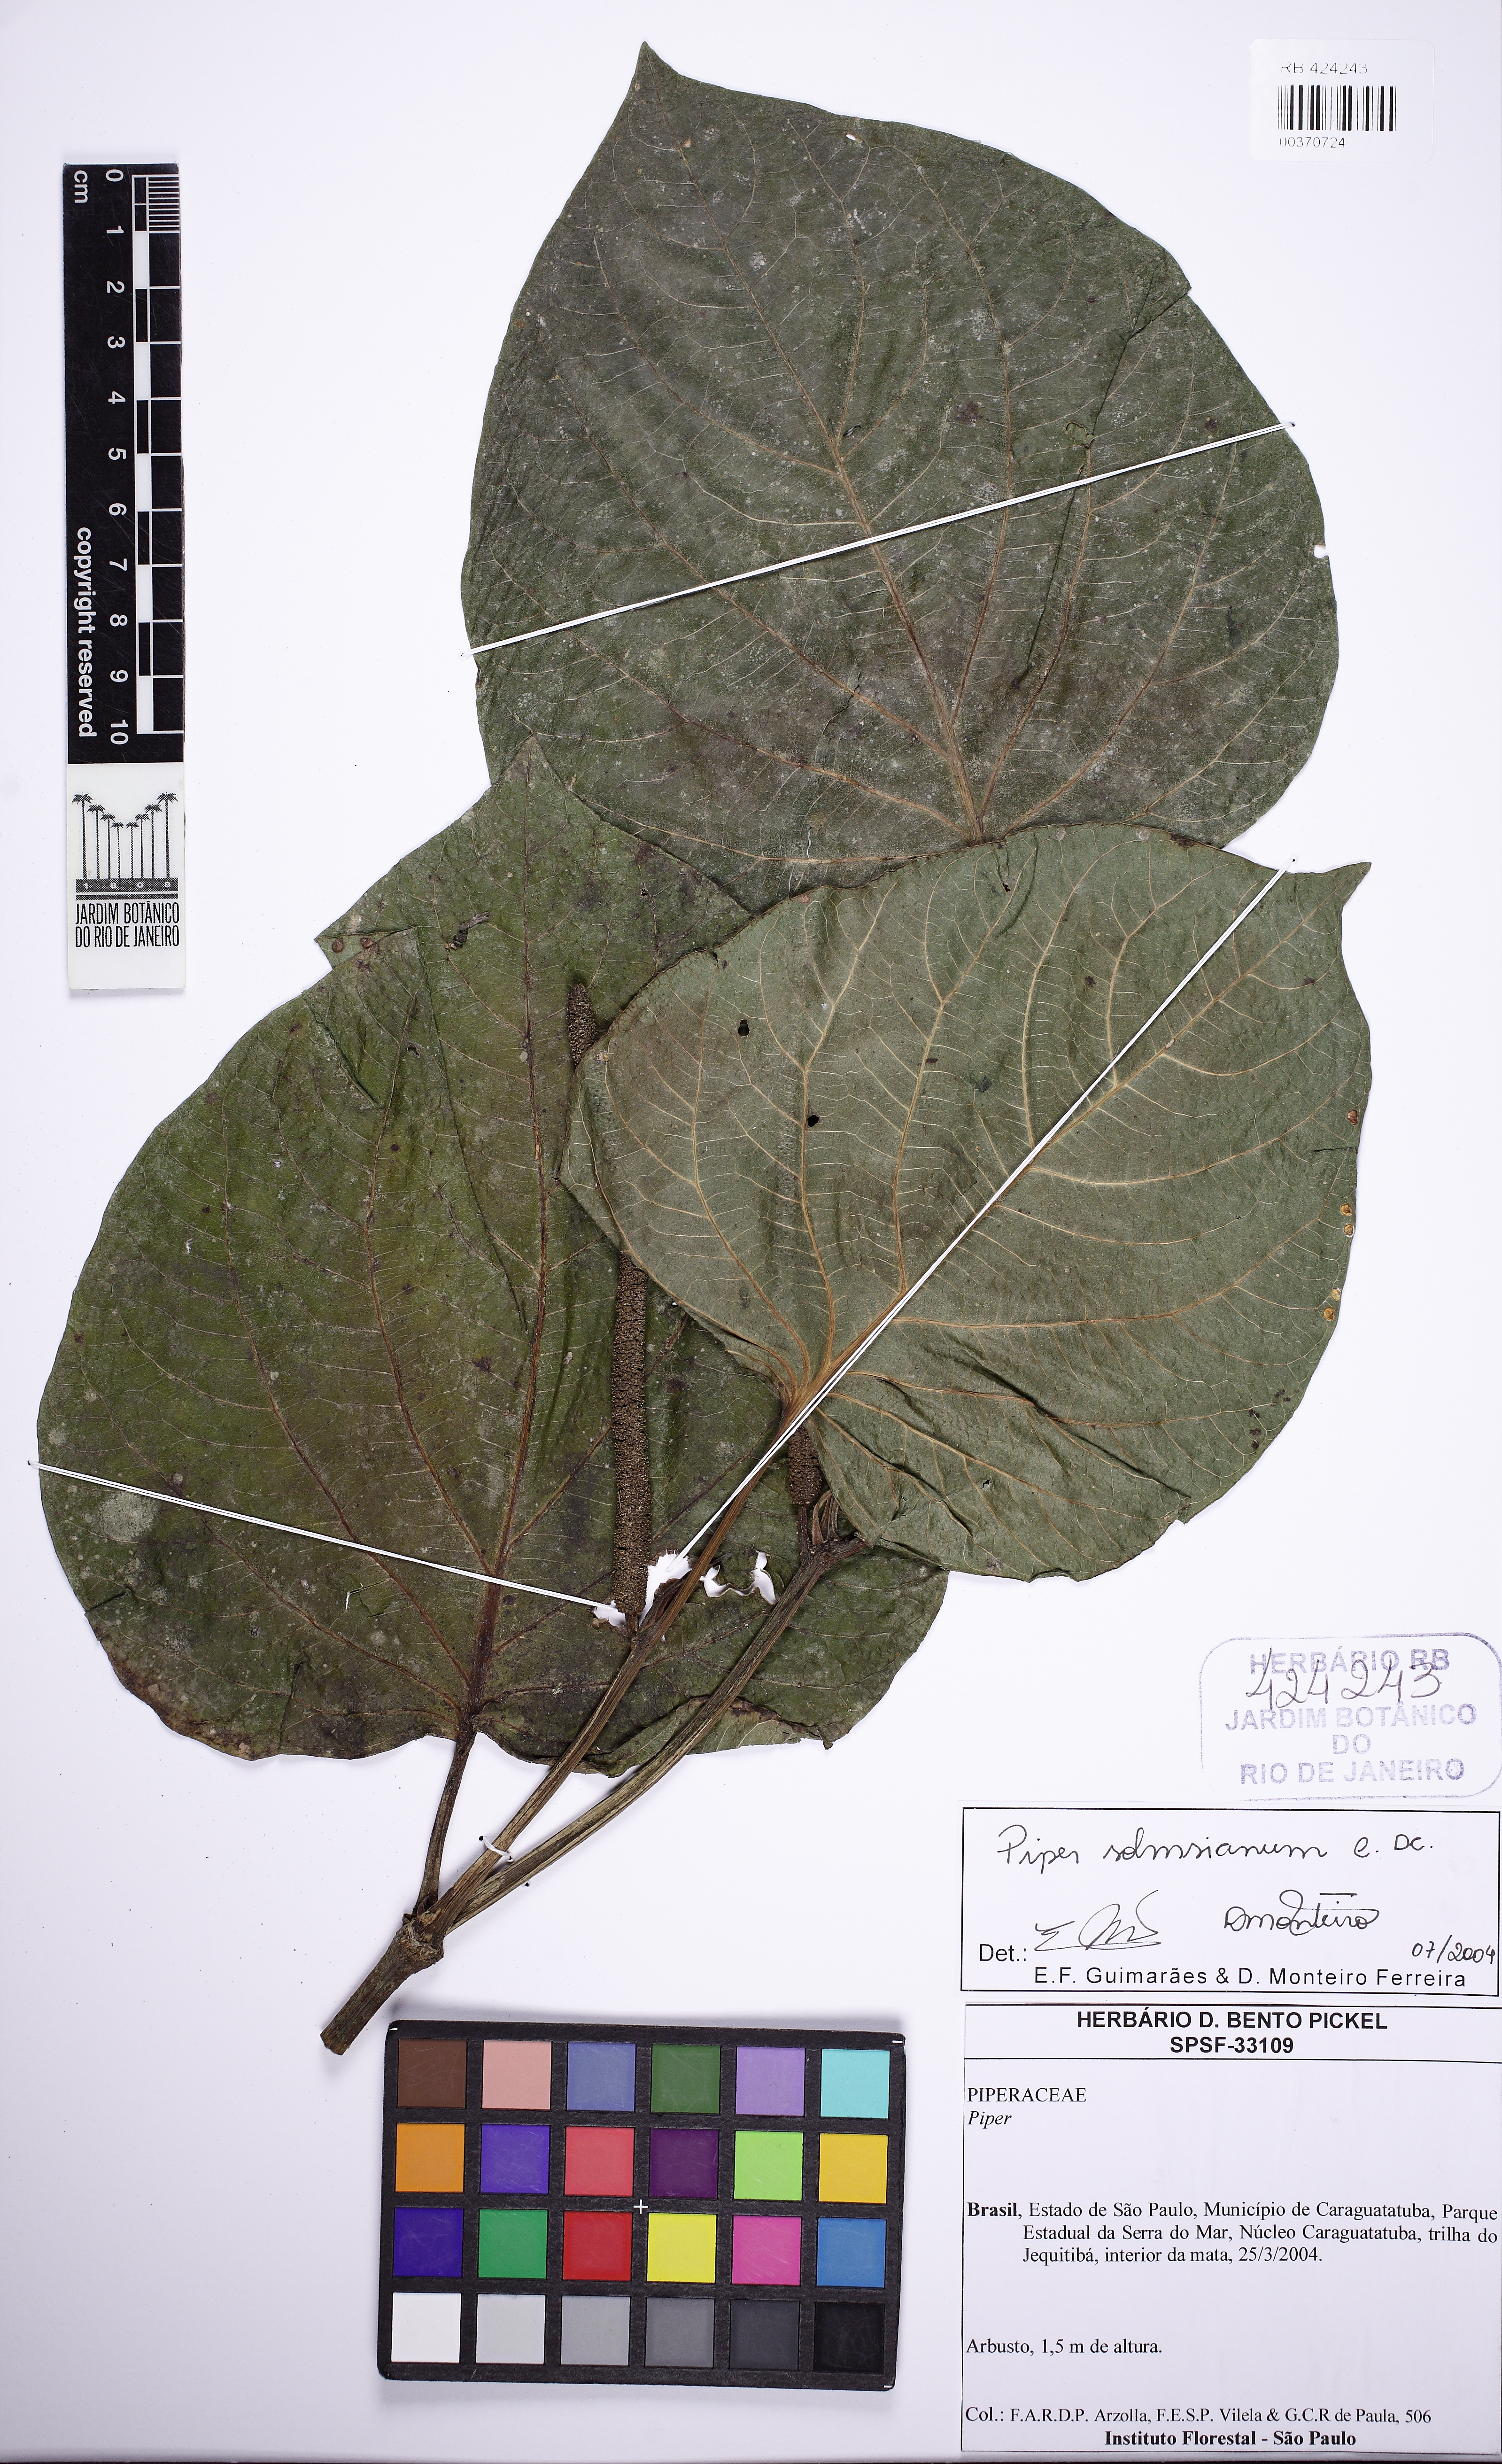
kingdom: Plantae
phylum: Tracheophyta
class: Magnoliopsida
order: Piperales
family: Piperaceae
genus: Piper
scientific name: Piper solmsianum
